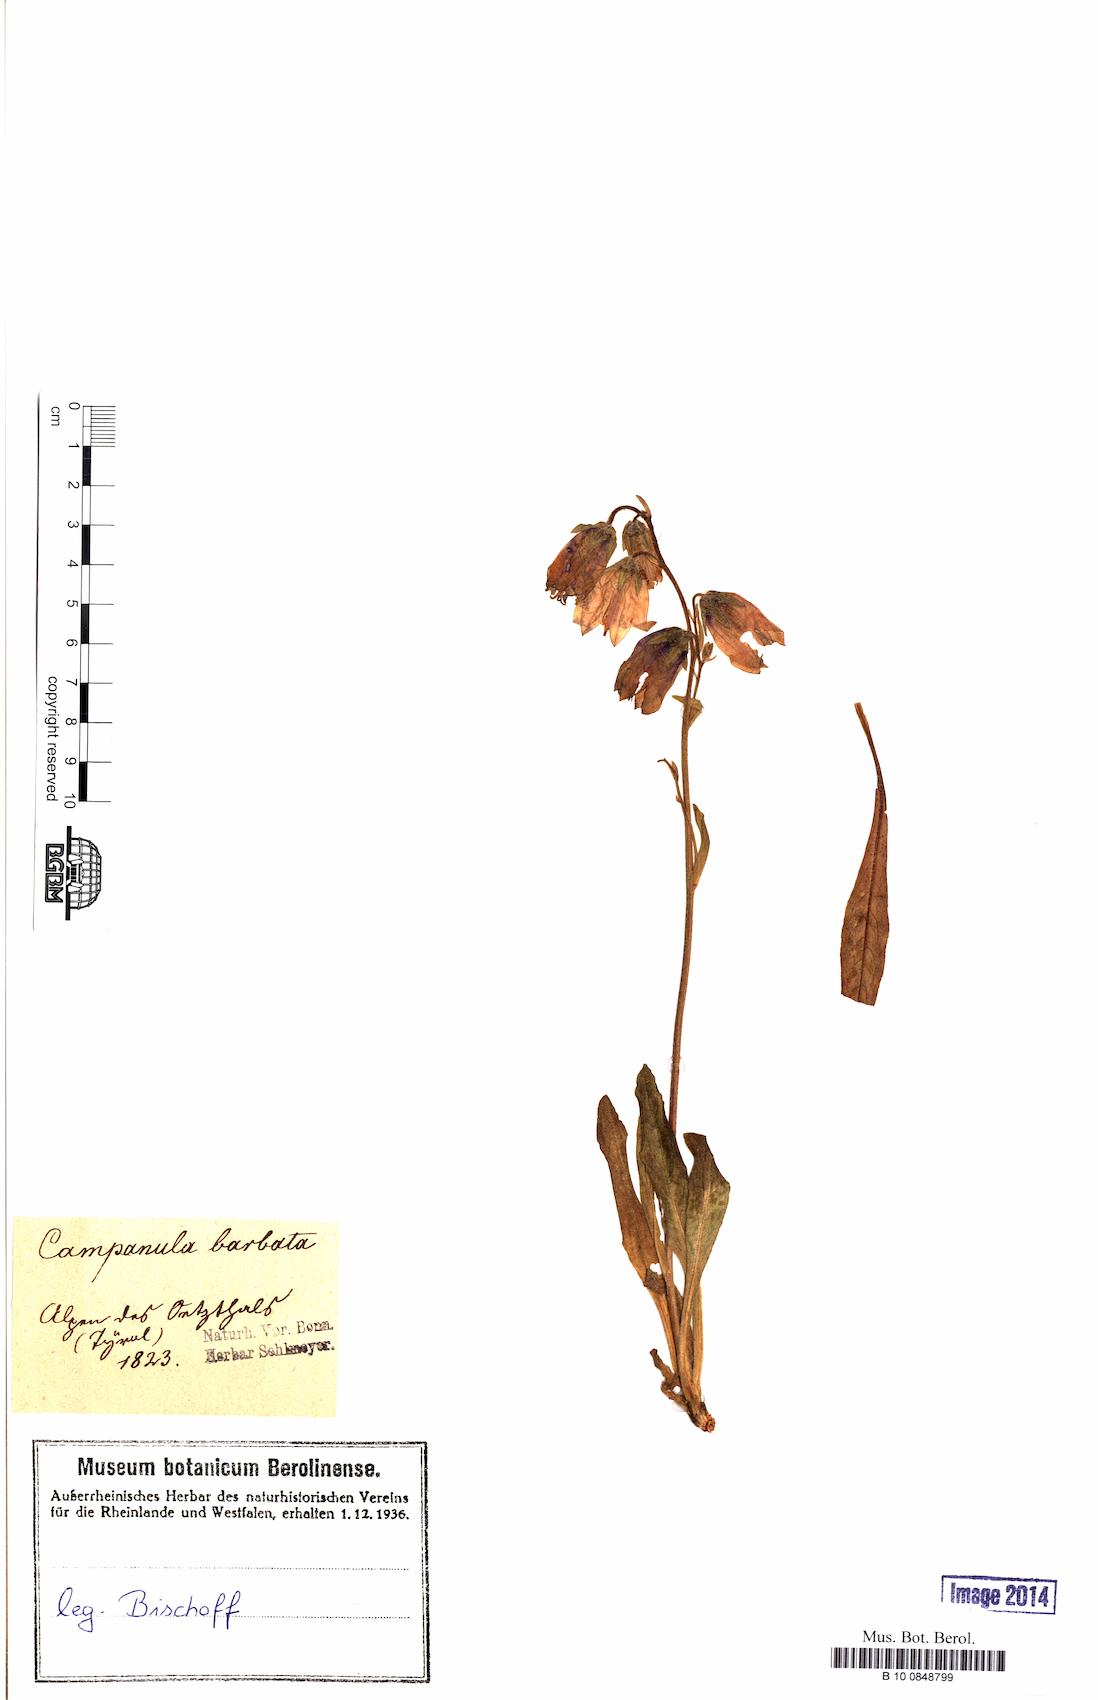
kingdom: Plantae
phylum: Tracheophyta
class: Magnoliopsida
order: Asterales
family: Campanulaceae
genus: Campanula
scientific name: Campanula barbata
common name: Bearded bellflower
